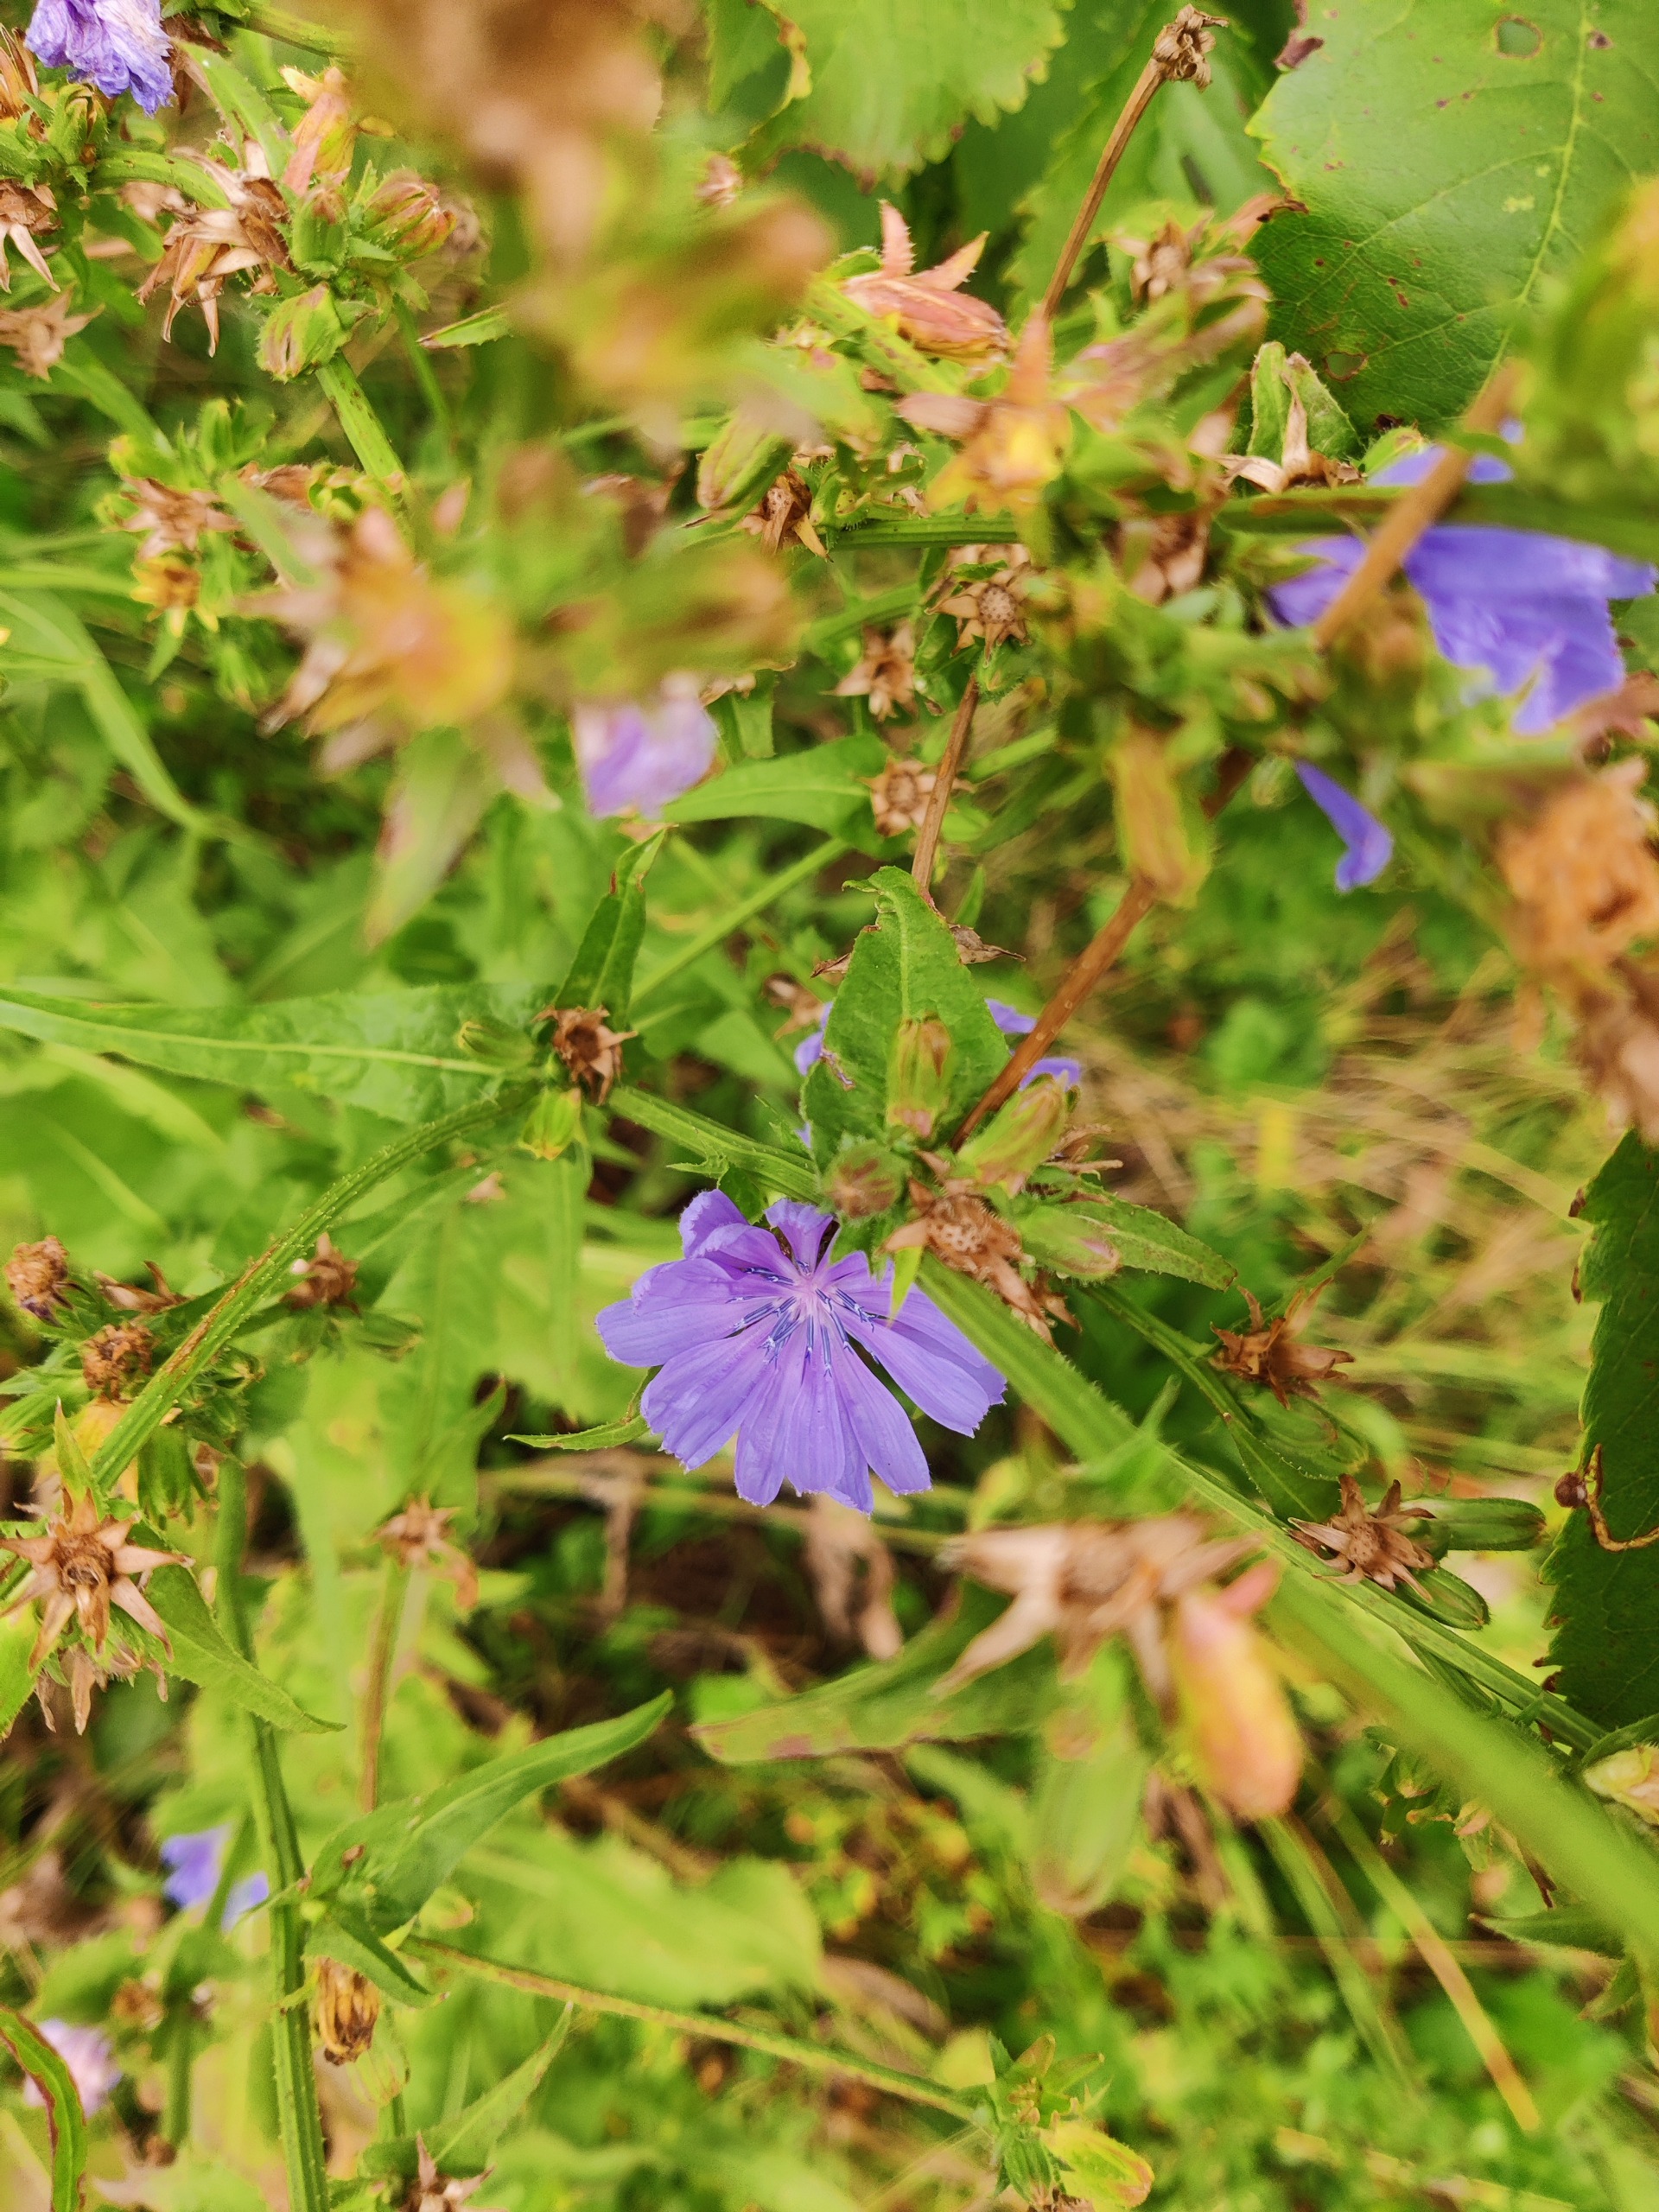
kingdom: Plantae
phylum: Tracheophyta
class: Magnoliopsida
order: Asterales
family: Asteraceae
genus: Cichorium
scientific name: Cichorium intybus
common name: Cikorie
